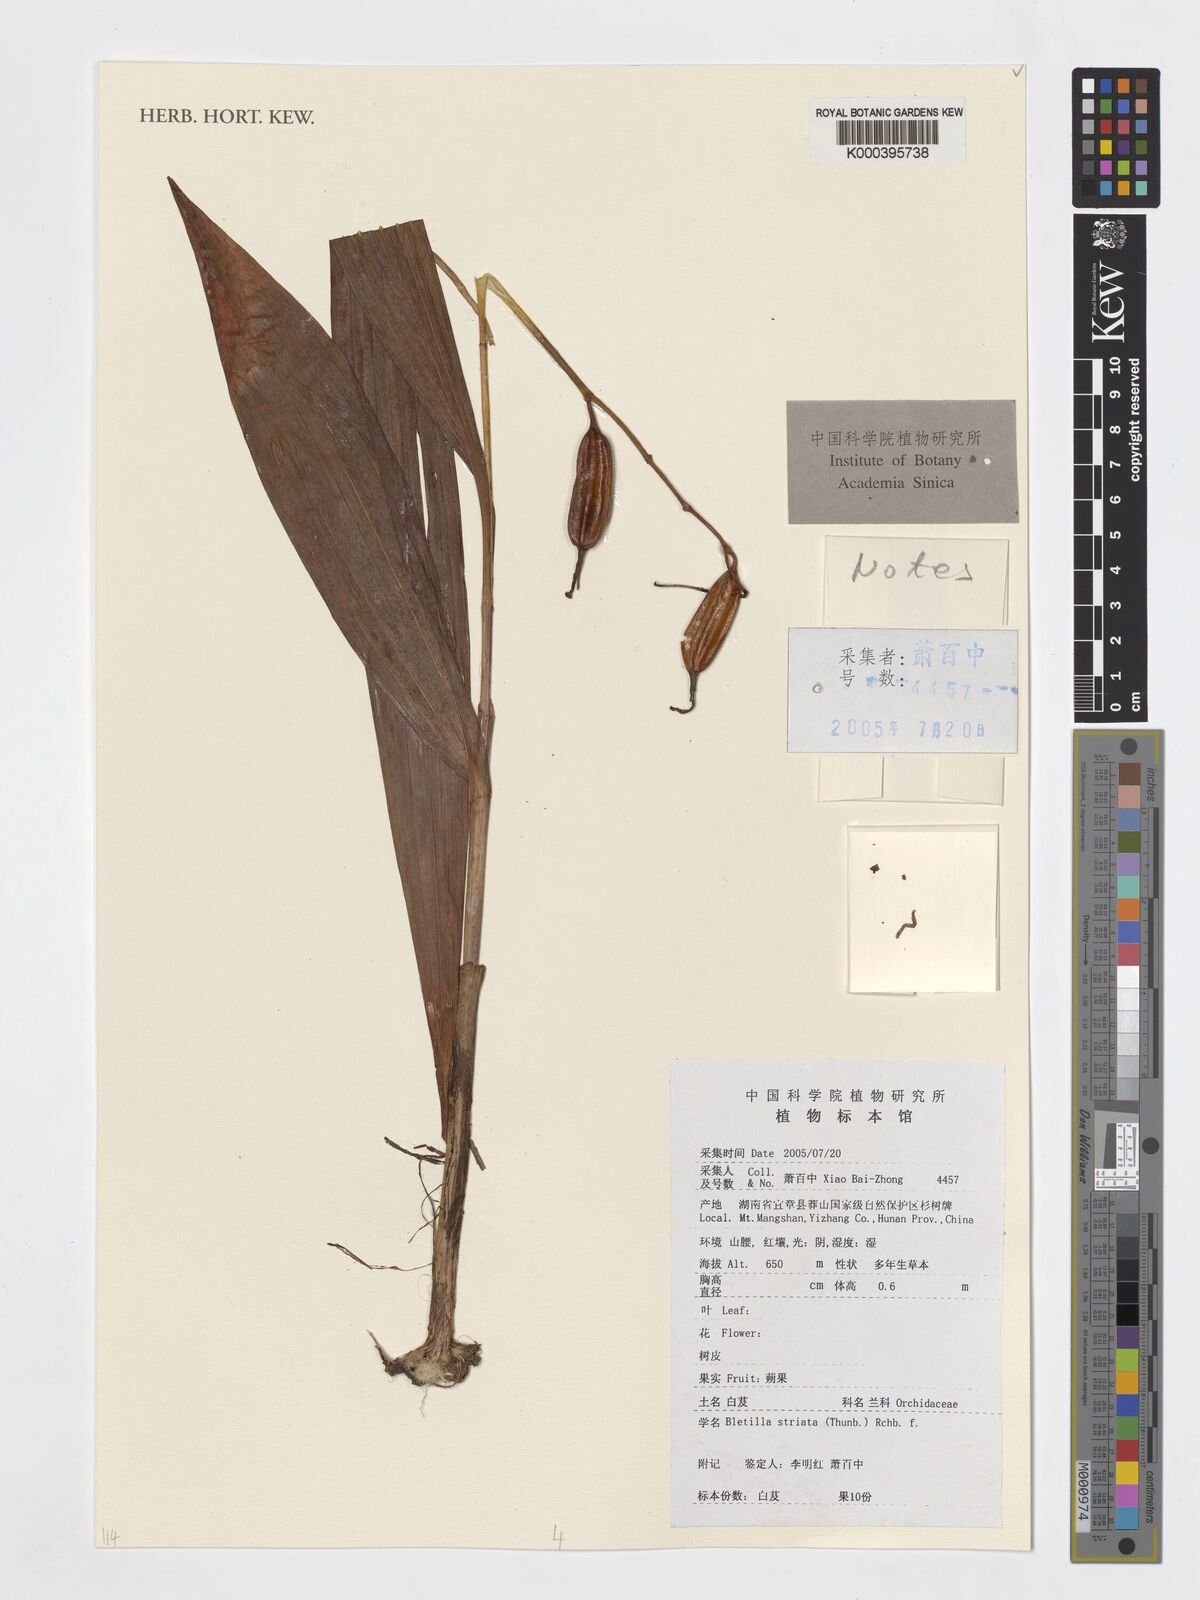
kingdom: Plantae
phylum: Tracheophyta
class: Liliopsida
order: Asparagales
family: Orchidaceae
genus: Bletilla
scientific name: Bletilla striata
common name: Hyacinth orchid
